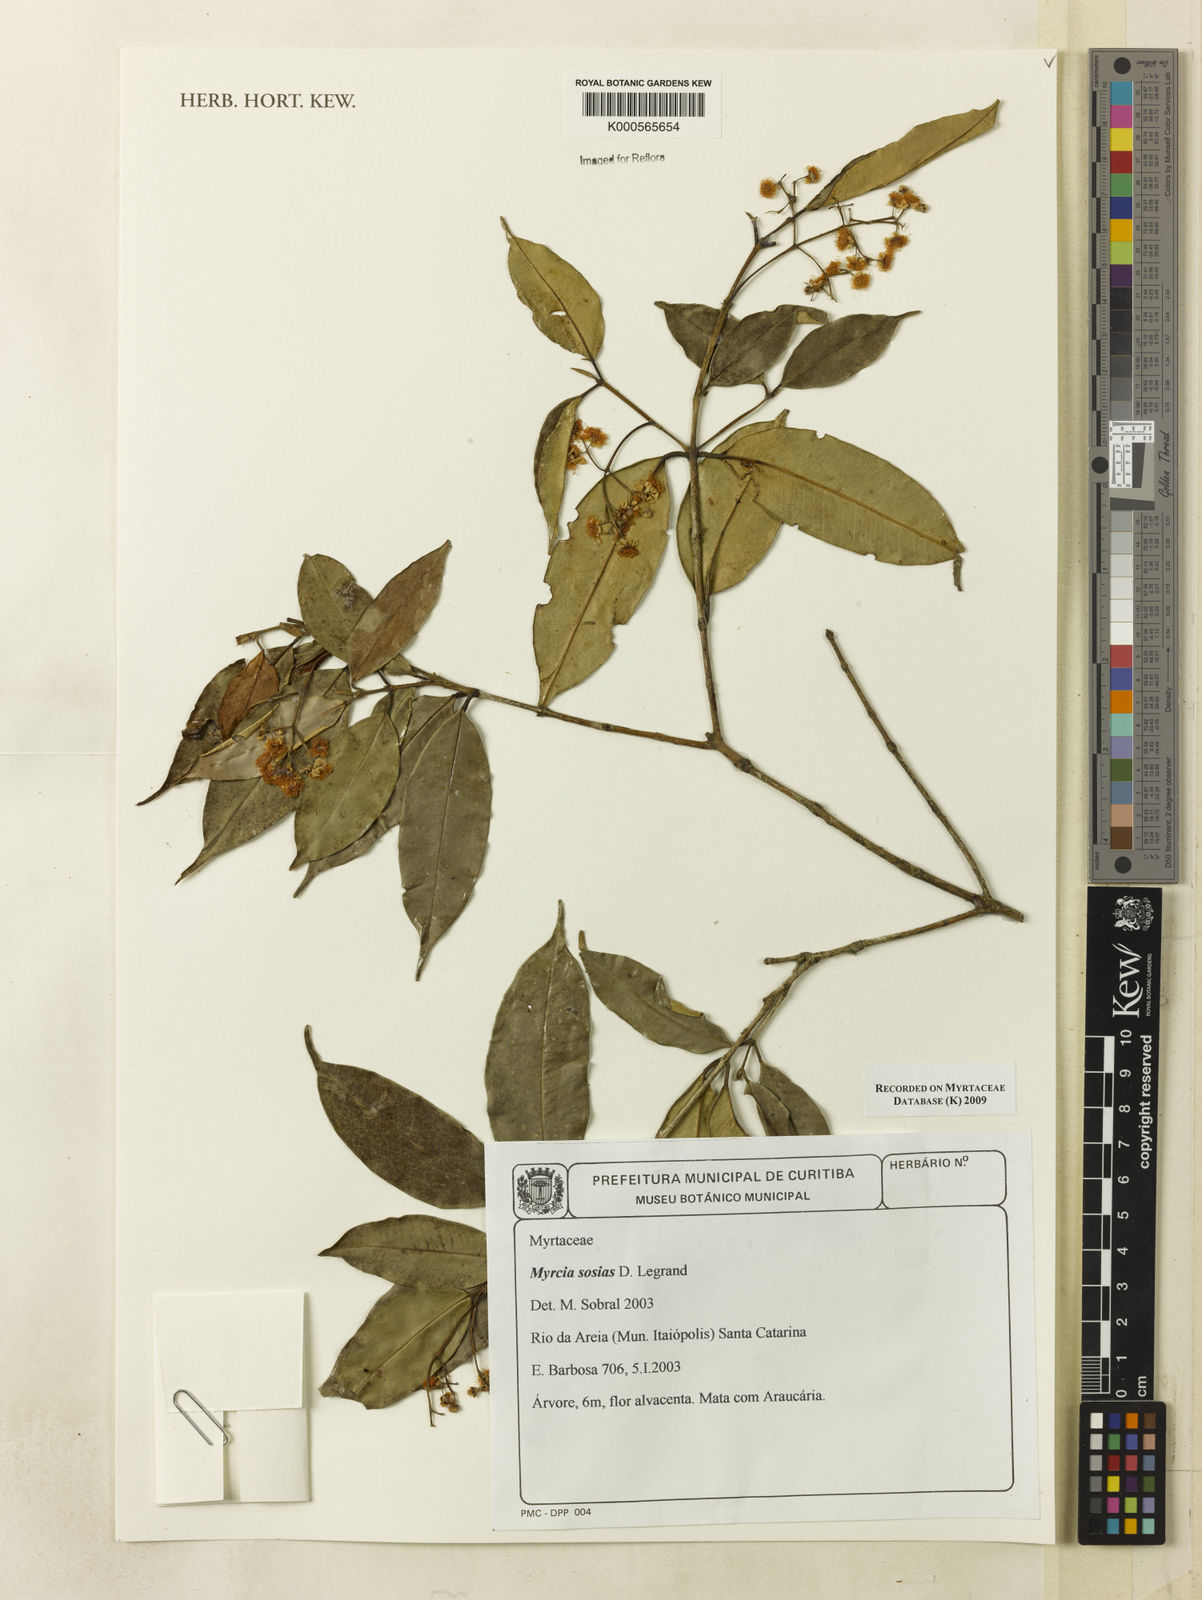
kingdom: Plantae
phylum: Tracheophyta
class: Magnoliopsida
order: Myrtales
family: Myrtaceae
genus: Myrcia
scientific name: Myrcia undulata
